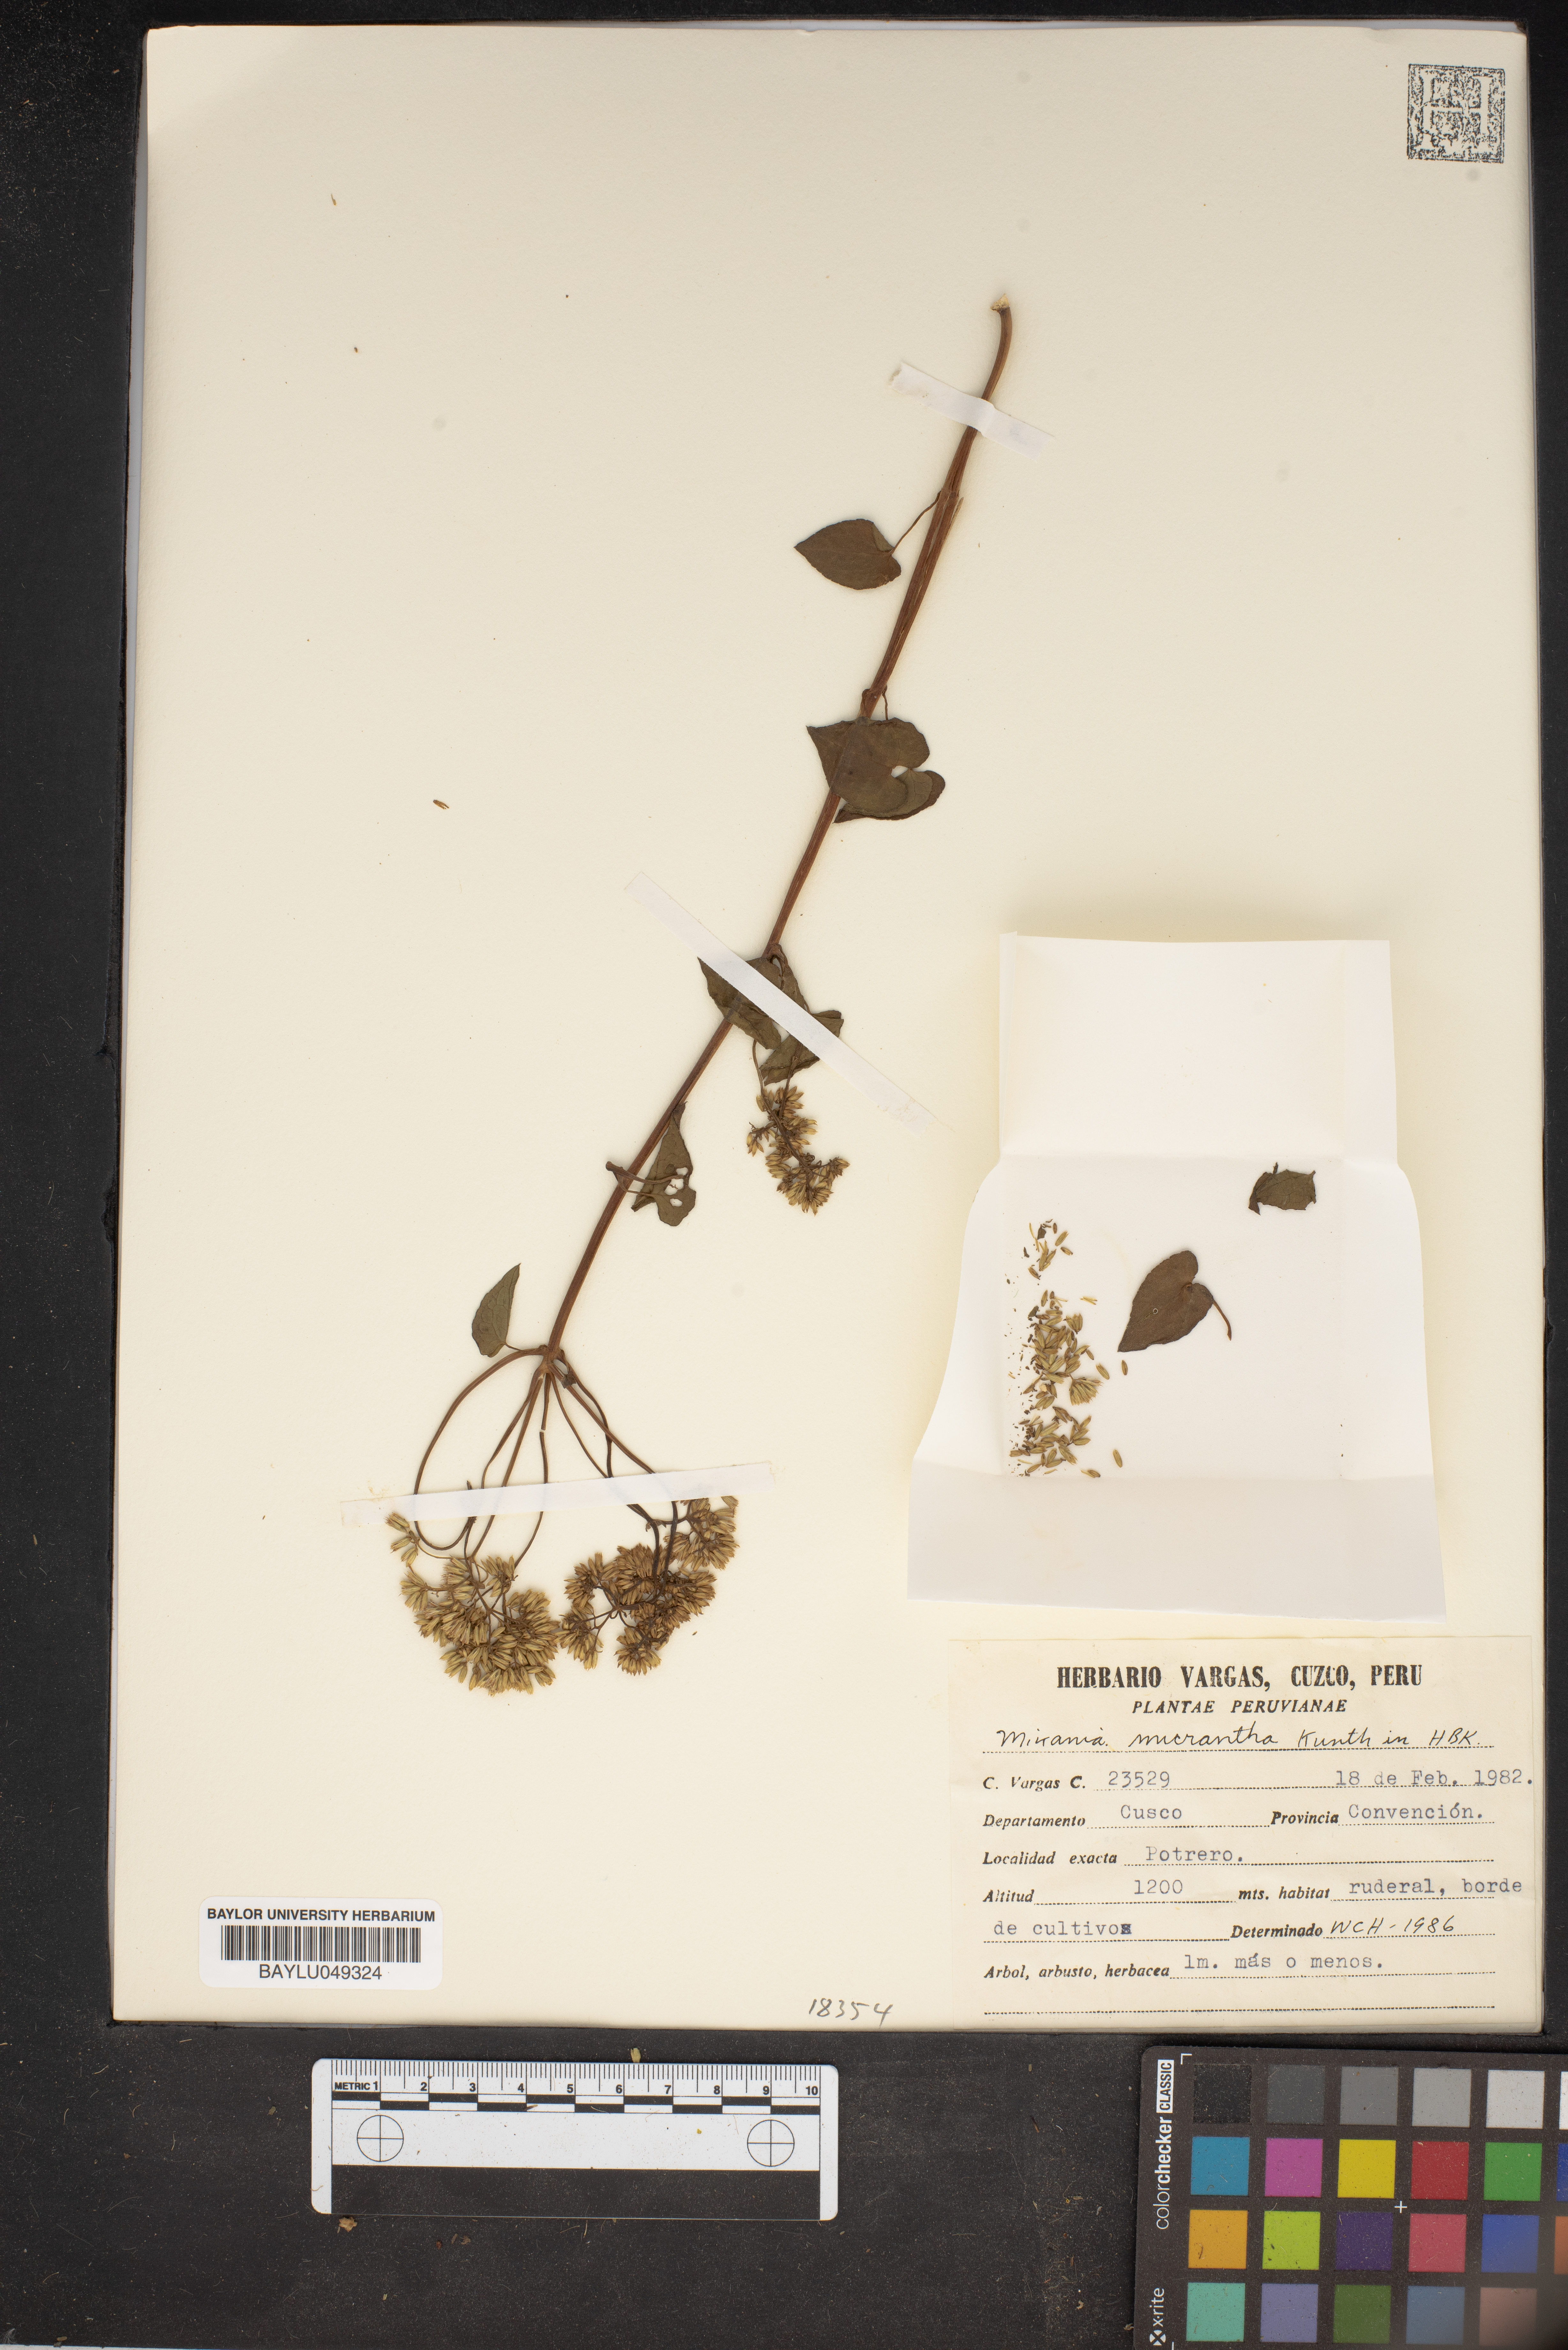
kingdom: Plantae
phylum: Tracheophyta
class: Magnoliopsida
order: Asterales
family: Asteraceae
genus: Mikania
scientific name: Mikania micrantha
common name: Mile-a-minute
